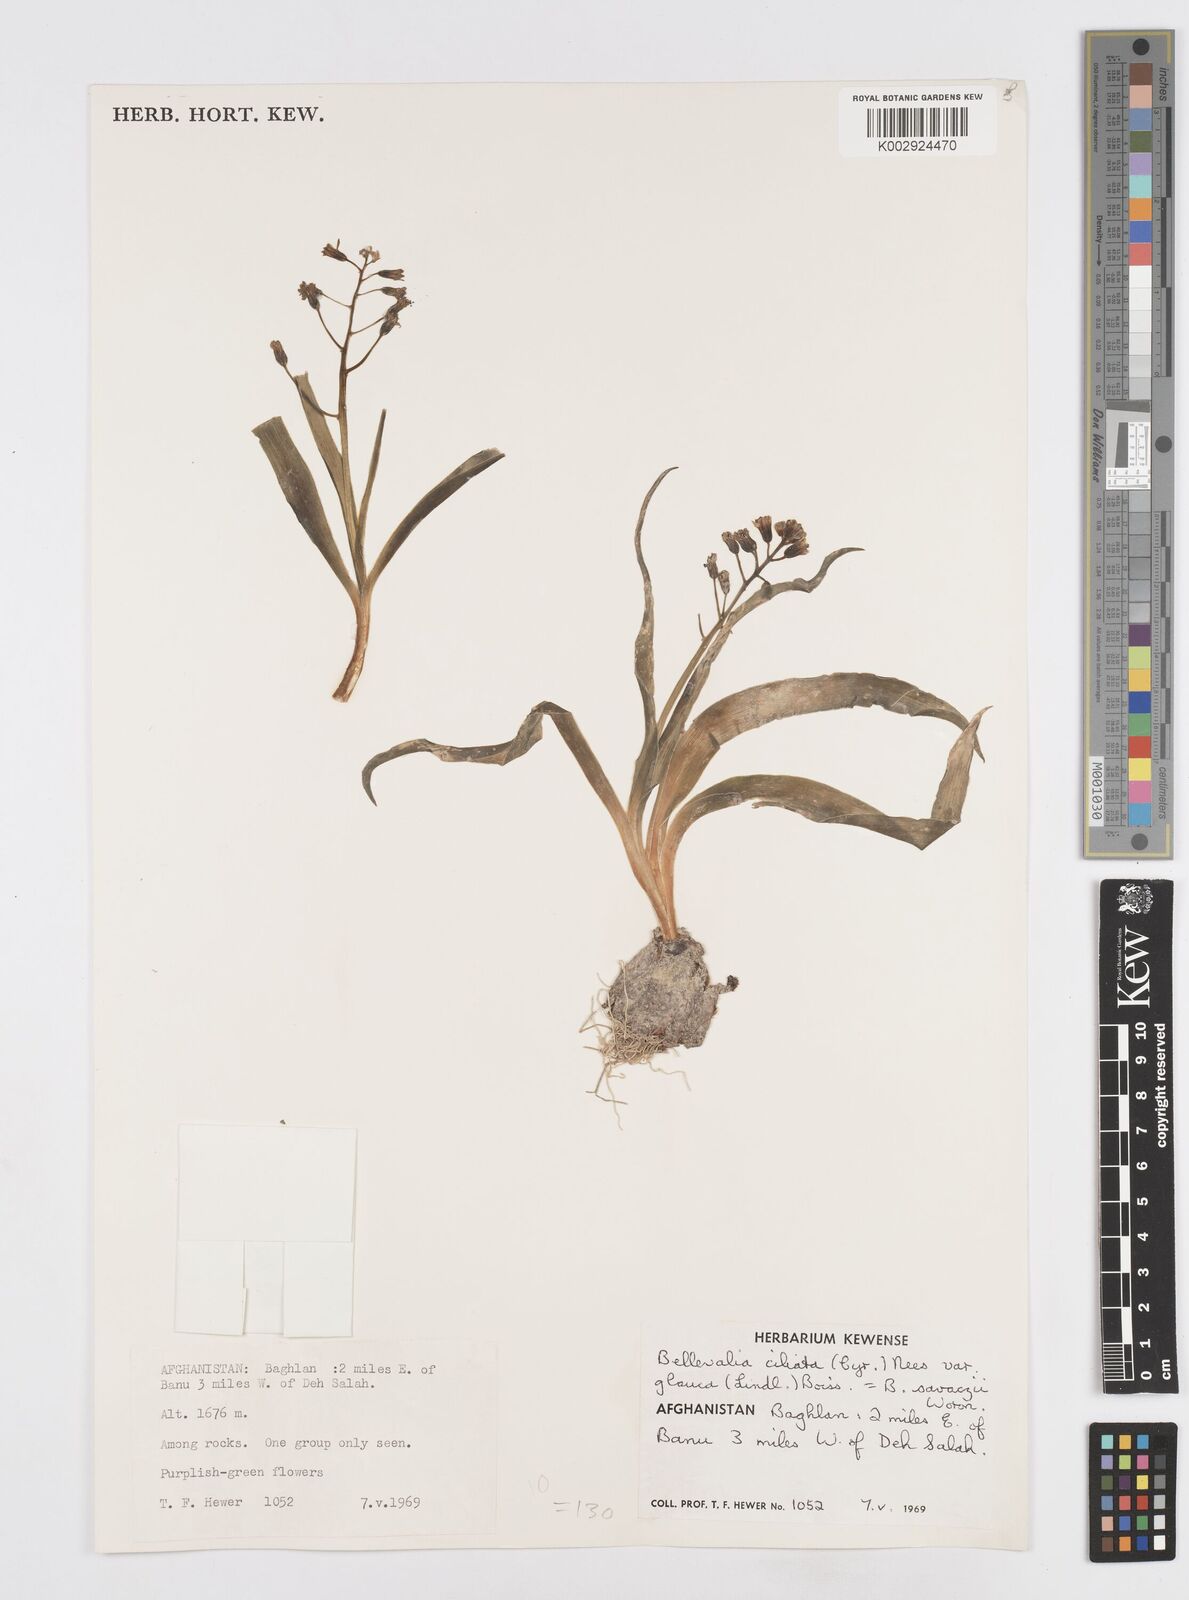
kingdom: Plantae
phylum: Tracheophyta
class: Liliopsida
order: Asparagales
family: Asparagaceae
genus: Bellevalia
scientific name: Bellevalia saviczii
